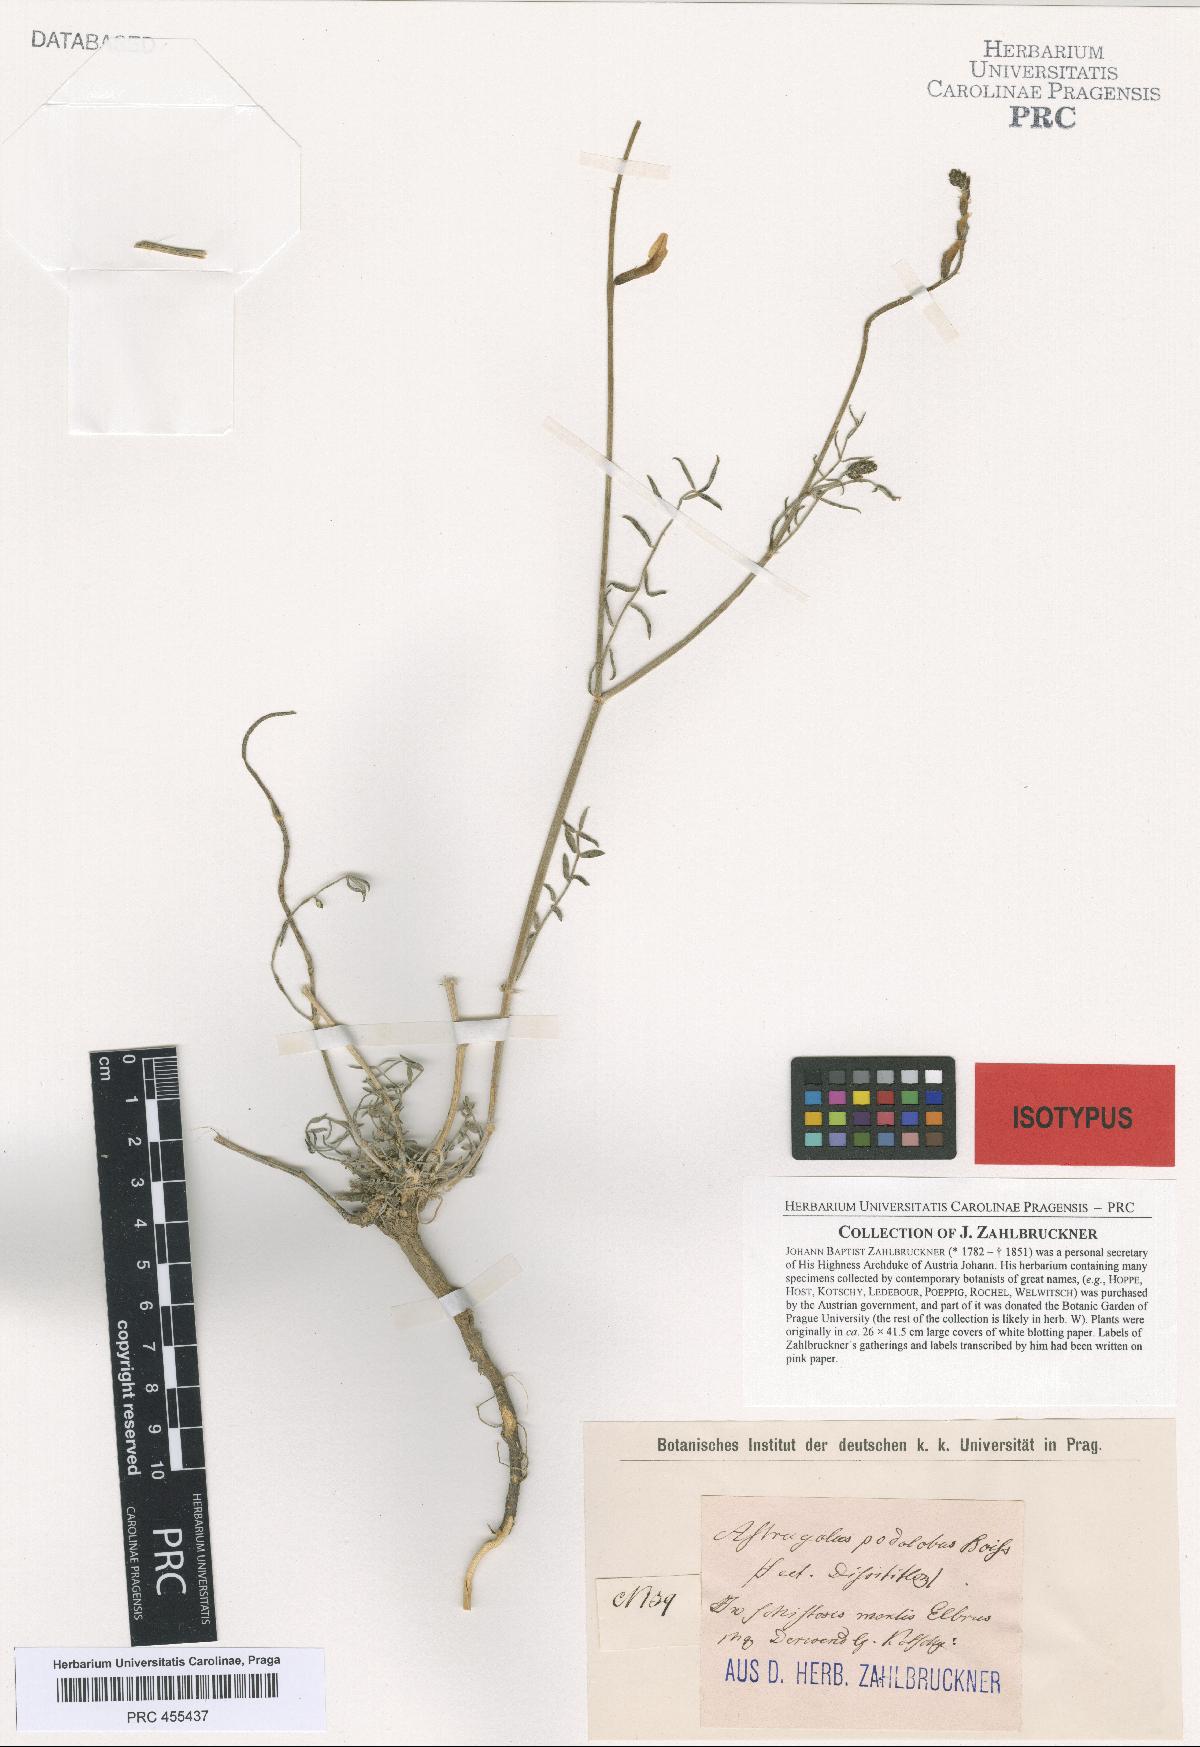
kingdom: Plantae
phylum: Tracheophyta
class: Magnoliopsida
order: Fabales
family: Fabaceae
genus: Astragalus
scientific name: Astragalus podolobus
